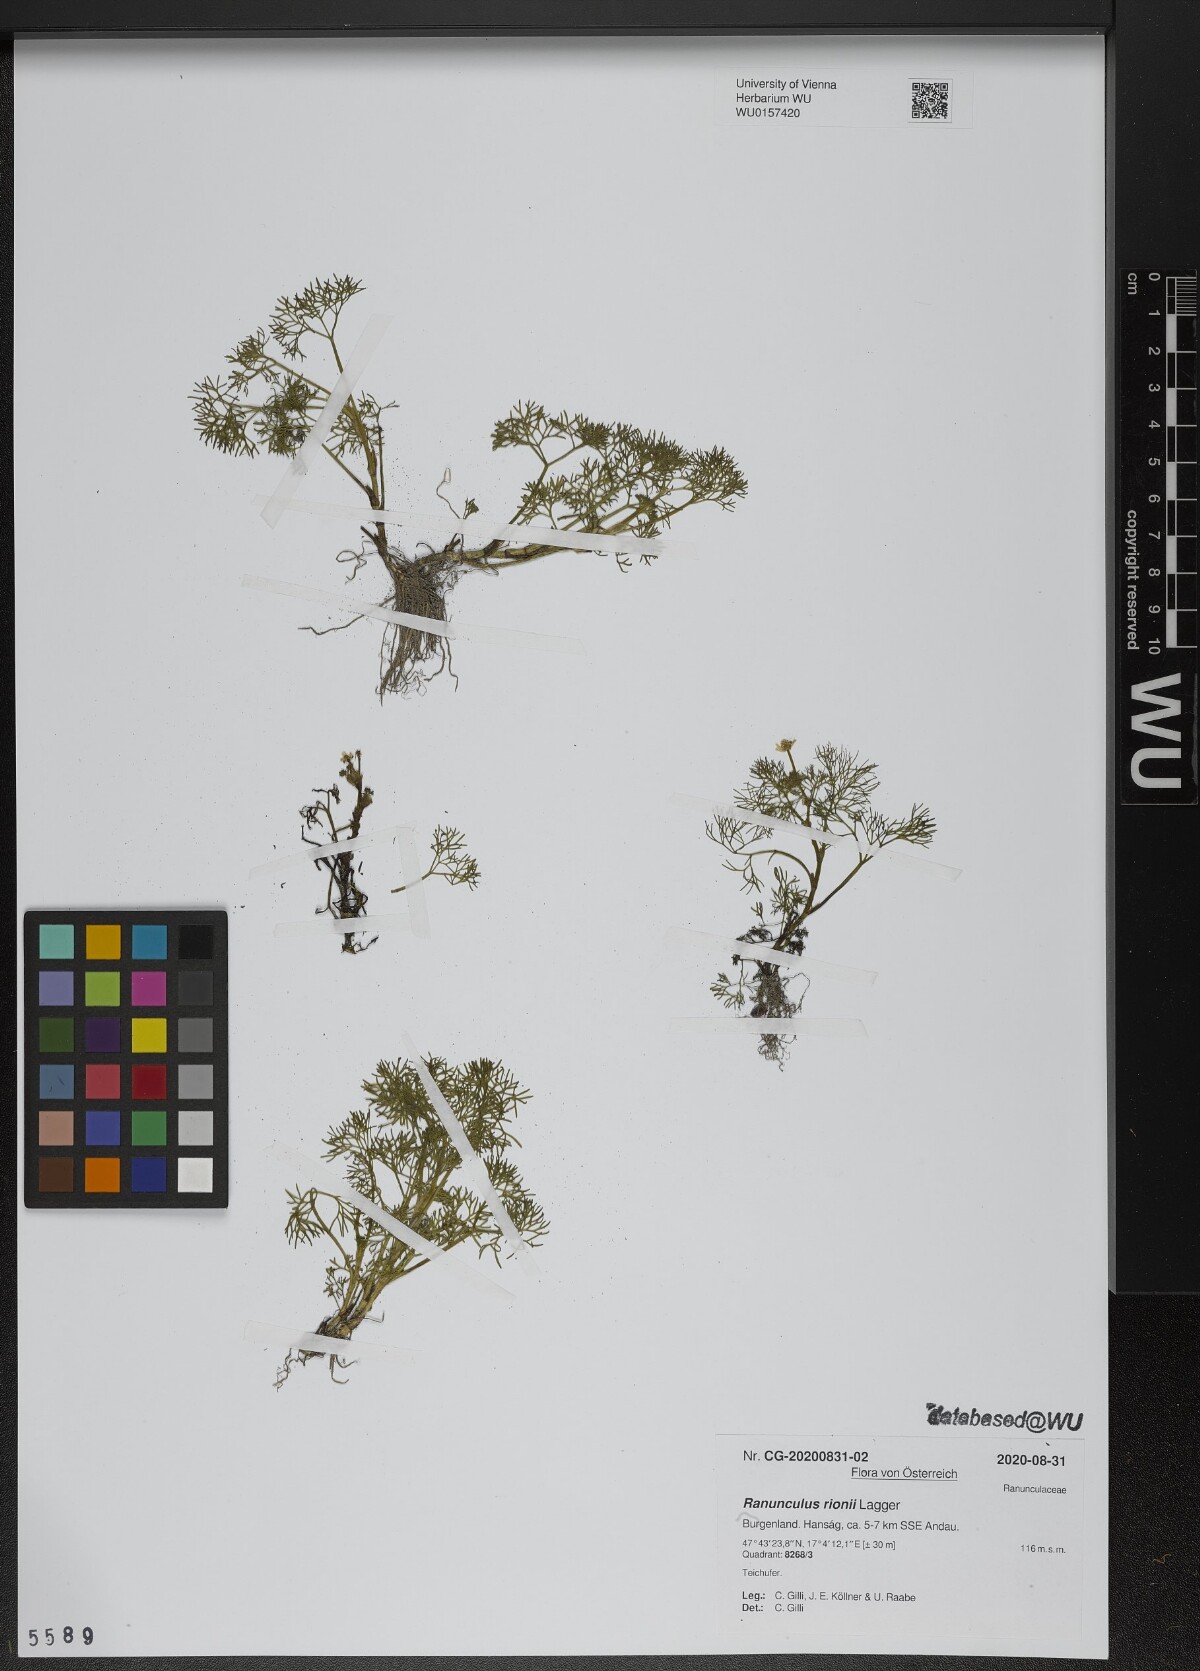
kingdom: Plantae
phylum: Tracheophyta
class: Magnoliopsida
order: Ranunculales
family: Ranunculaceae
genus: Ranunculus
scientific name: Ranunculus rionii
